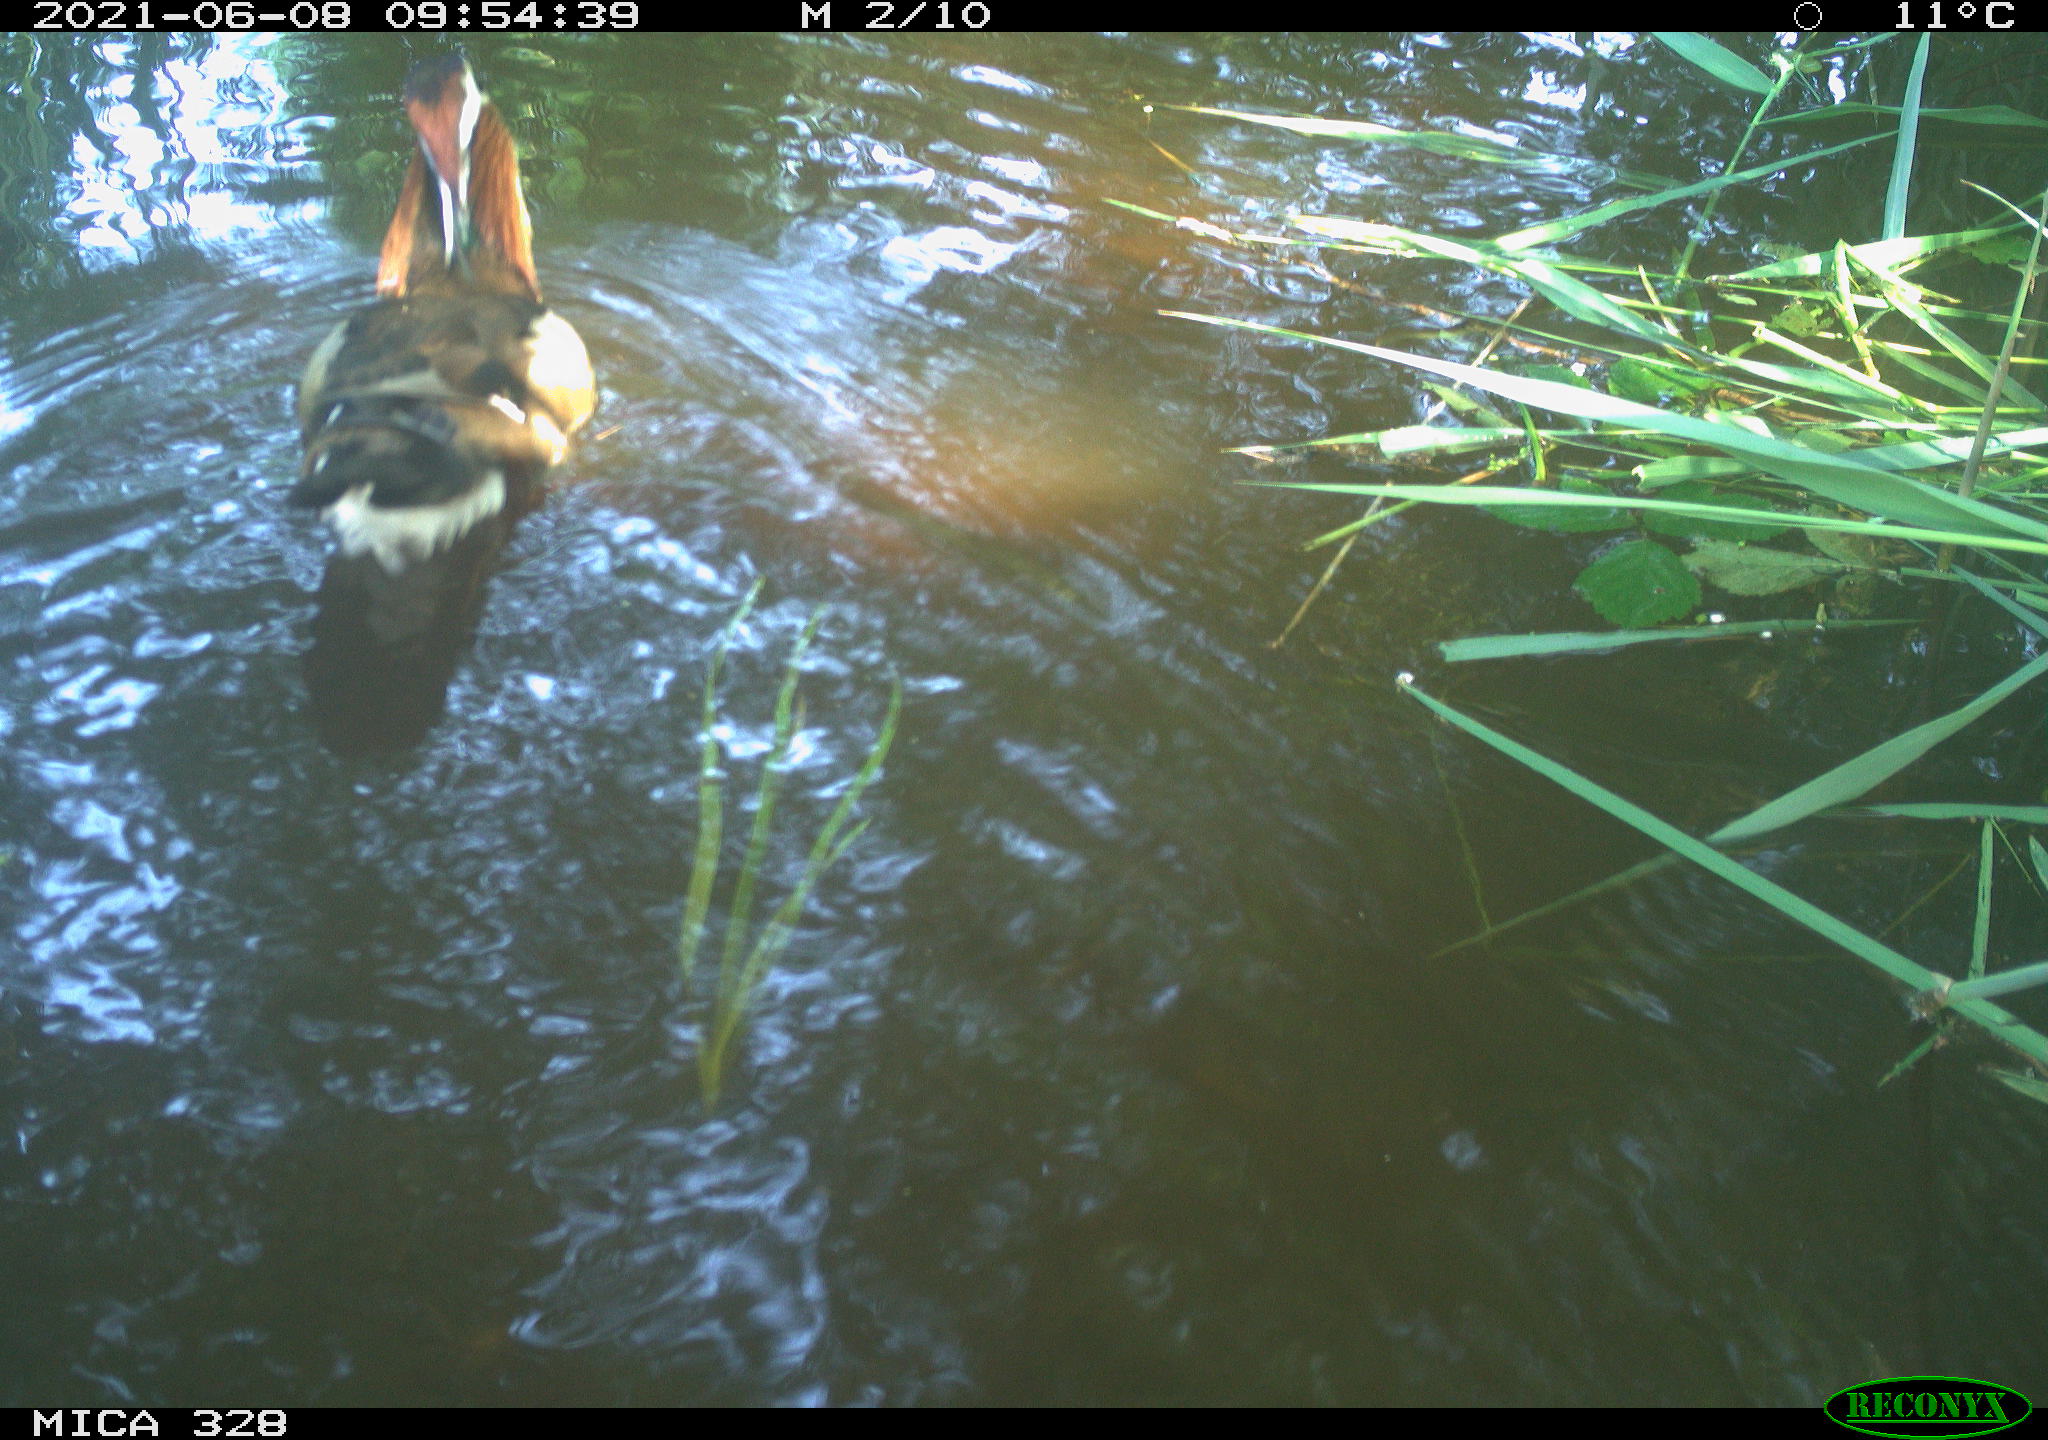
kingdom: Animalia
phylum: Chordata
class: Aves
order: Anseriformes
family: Anatidae
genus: Aix
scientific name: Aix galericulata
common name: Mandarin duck
